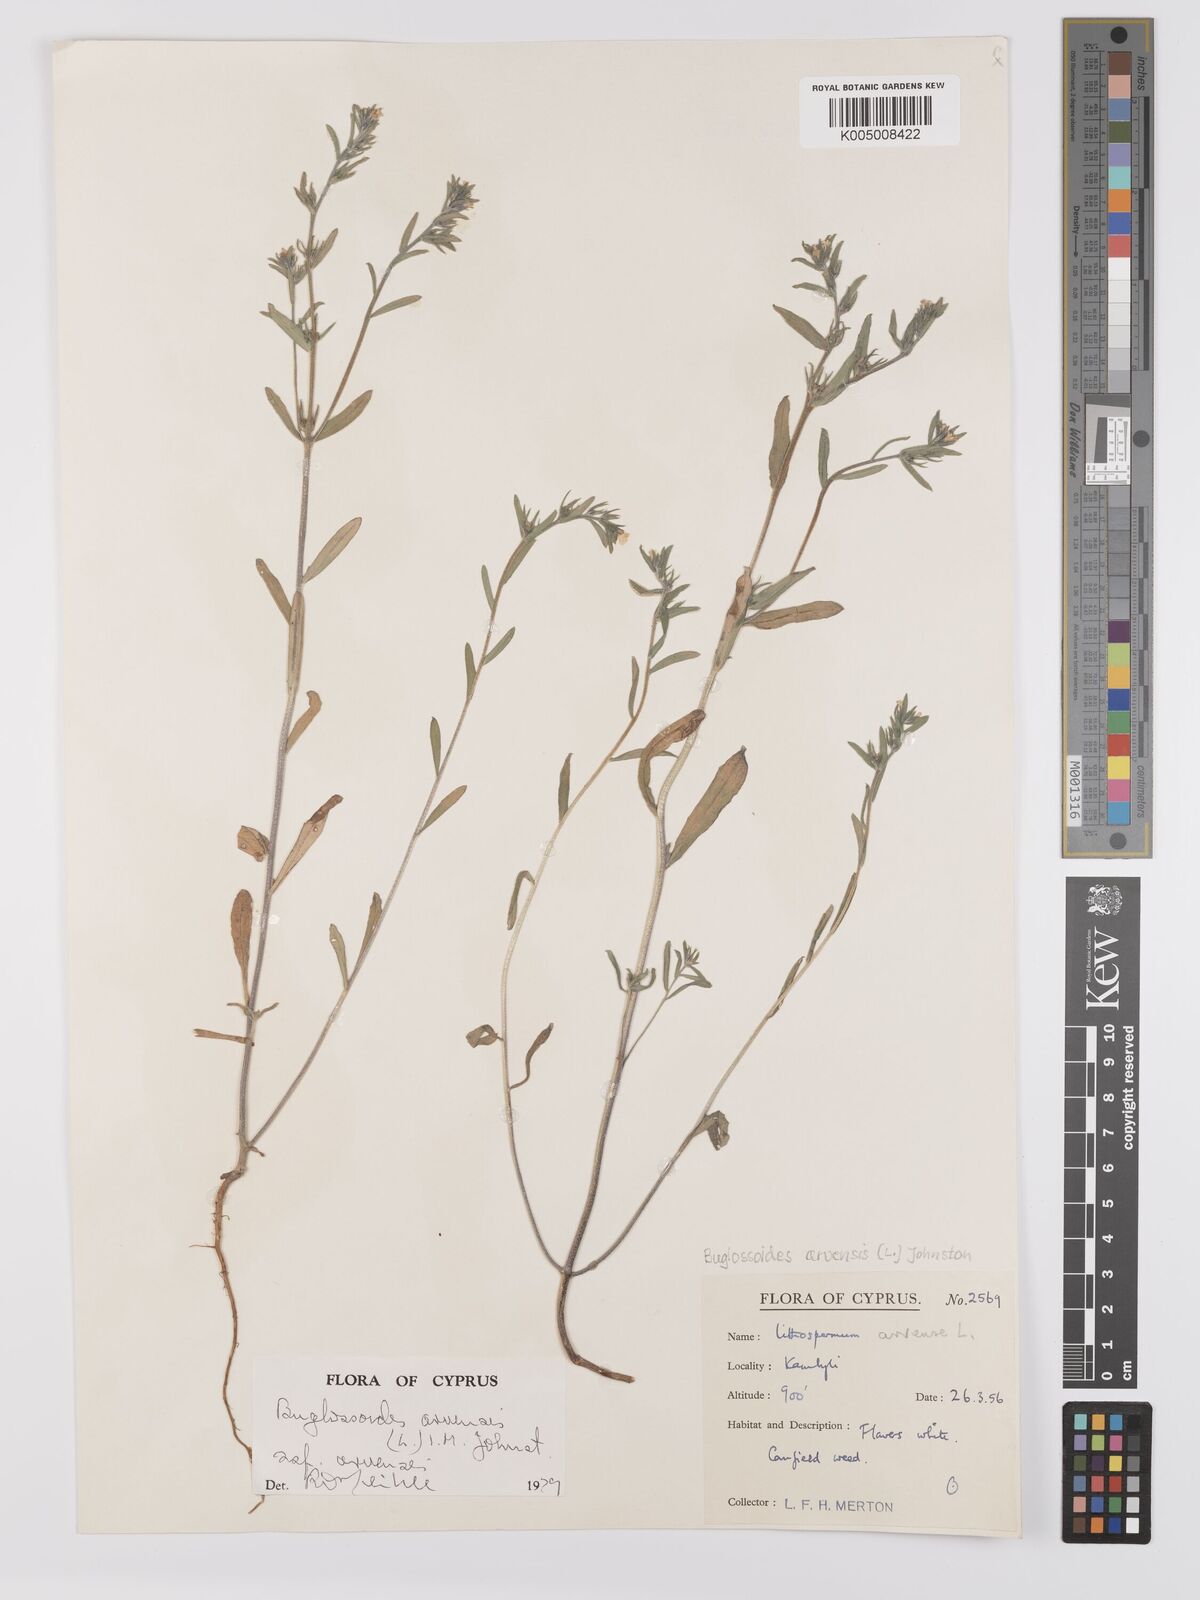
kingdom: Plantae
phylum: Tracheophyta
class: Magnoliopsida
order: Boraginales
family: Boraginaceae
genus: Buglossoides
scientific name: Buglossoides arvensis
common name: Corn gromwell
